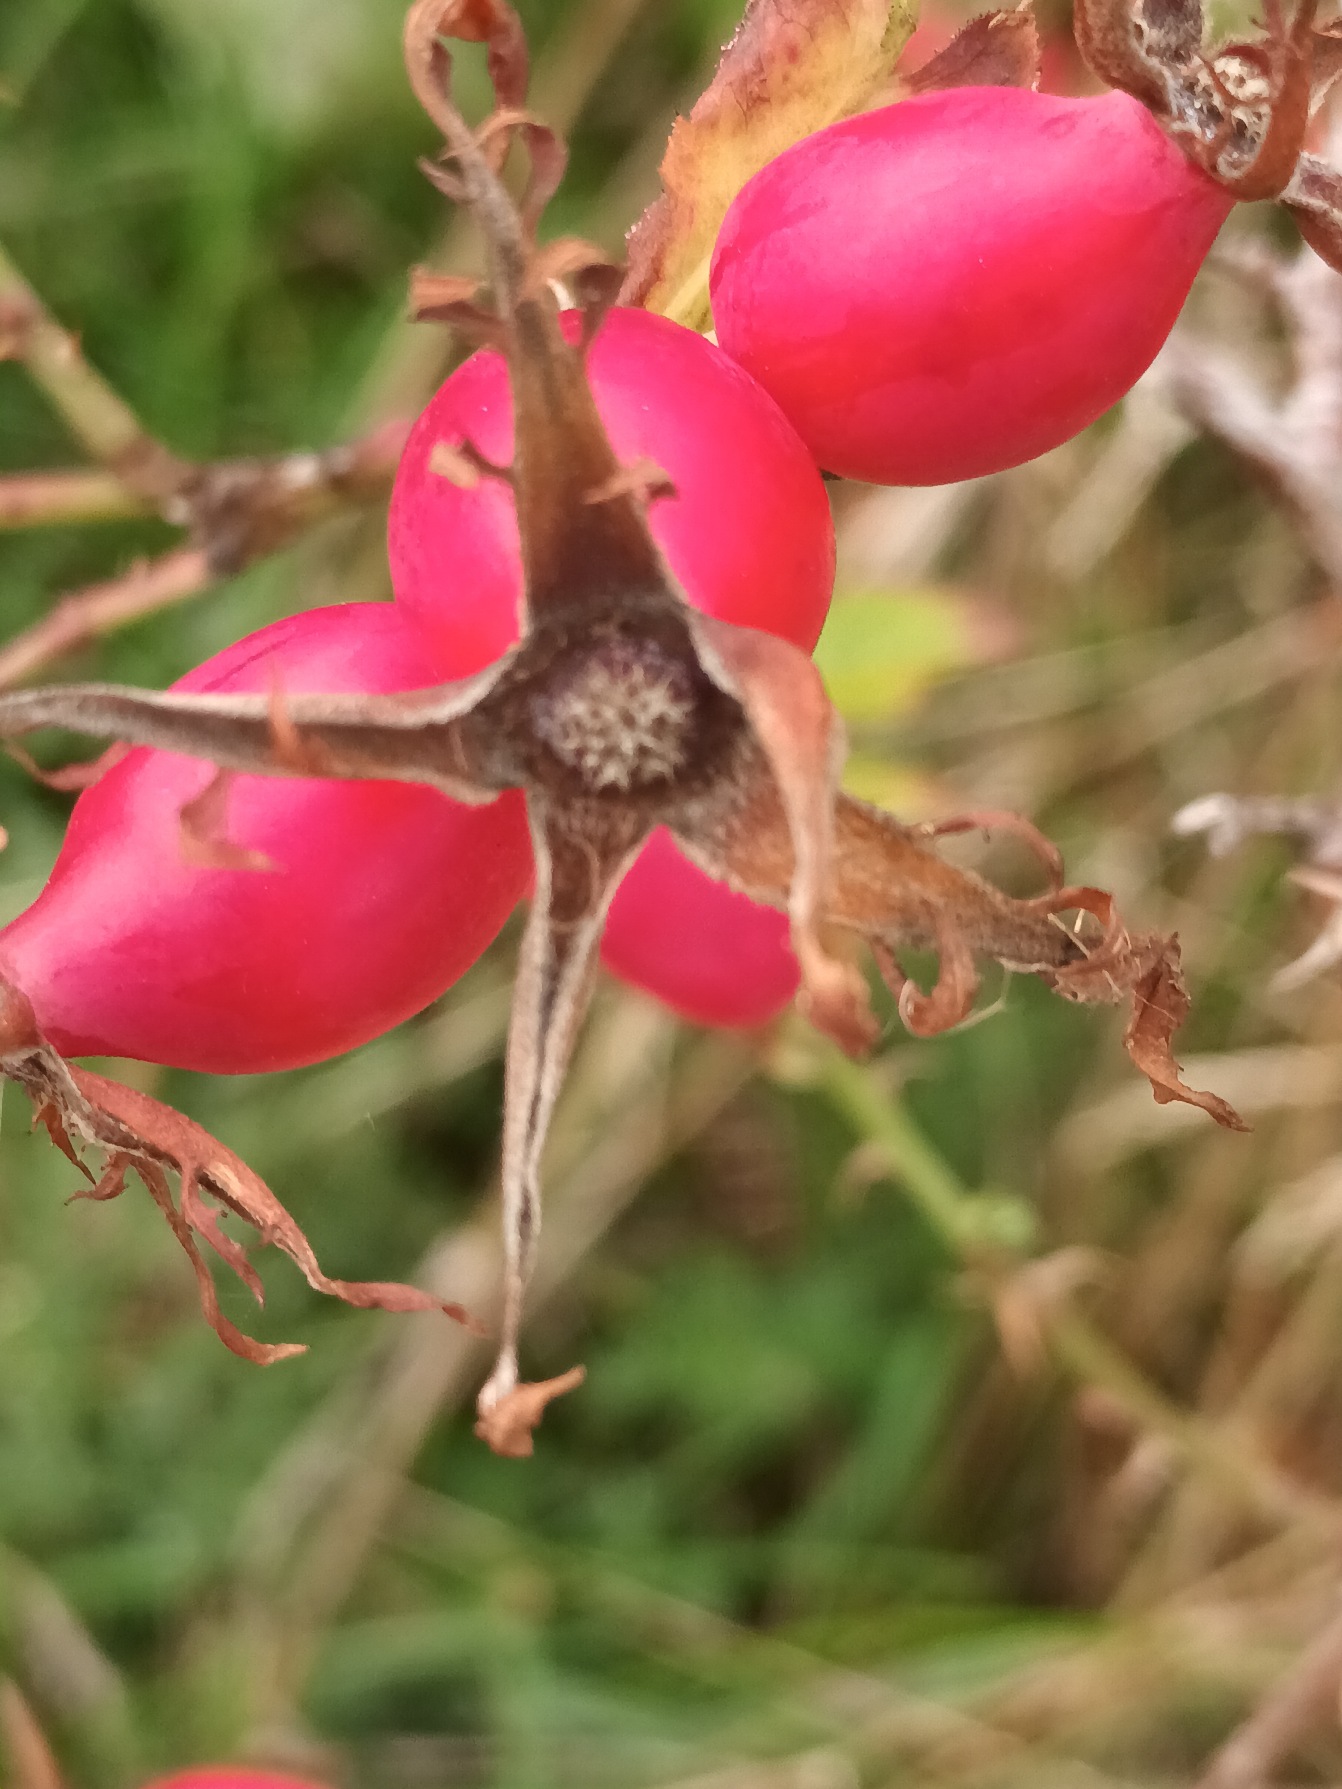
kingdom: Plantae
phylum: Tracheophyta
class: Magnoliopsida
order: Rosales
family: Rosaceae
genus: Rosa
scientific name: Rosa dumalis
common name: Blågrøn rose
